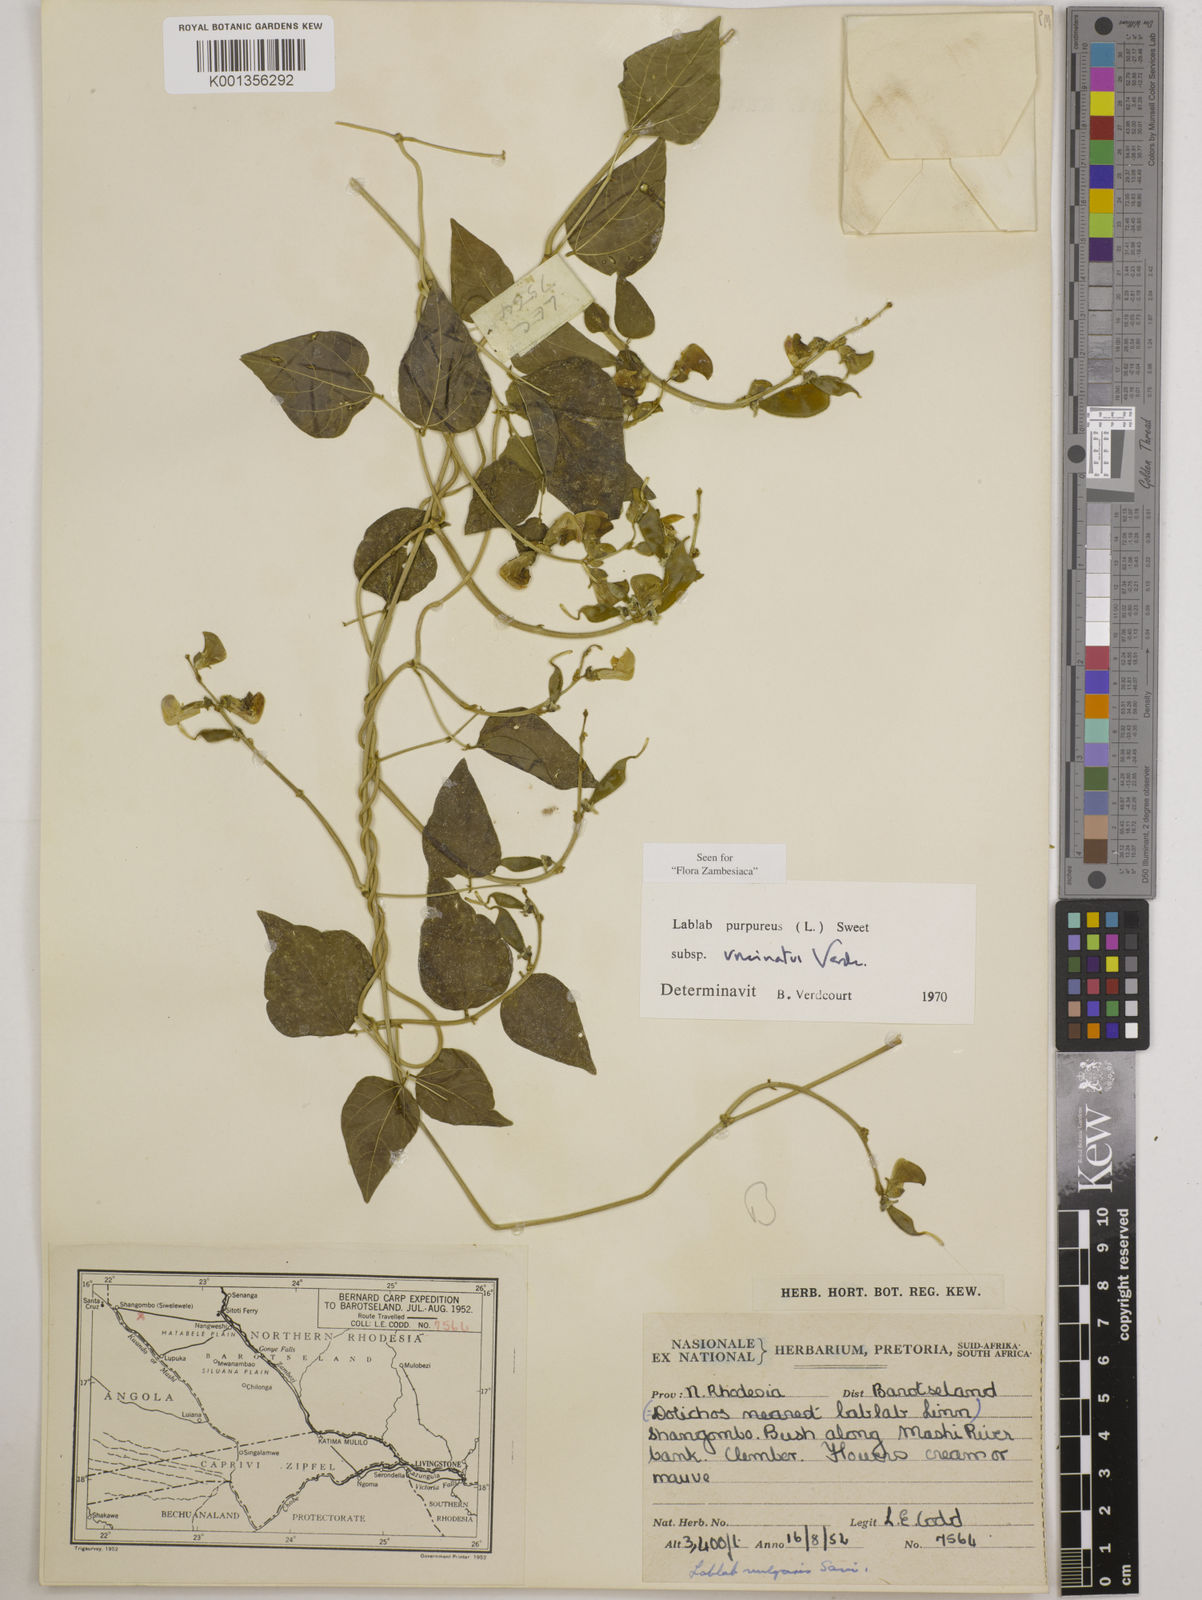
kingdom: Plantae
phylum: Tracheophyta
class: Magnoliopsida
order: Fabales
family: Fabaceae
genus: Lablab
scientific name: Lablab
